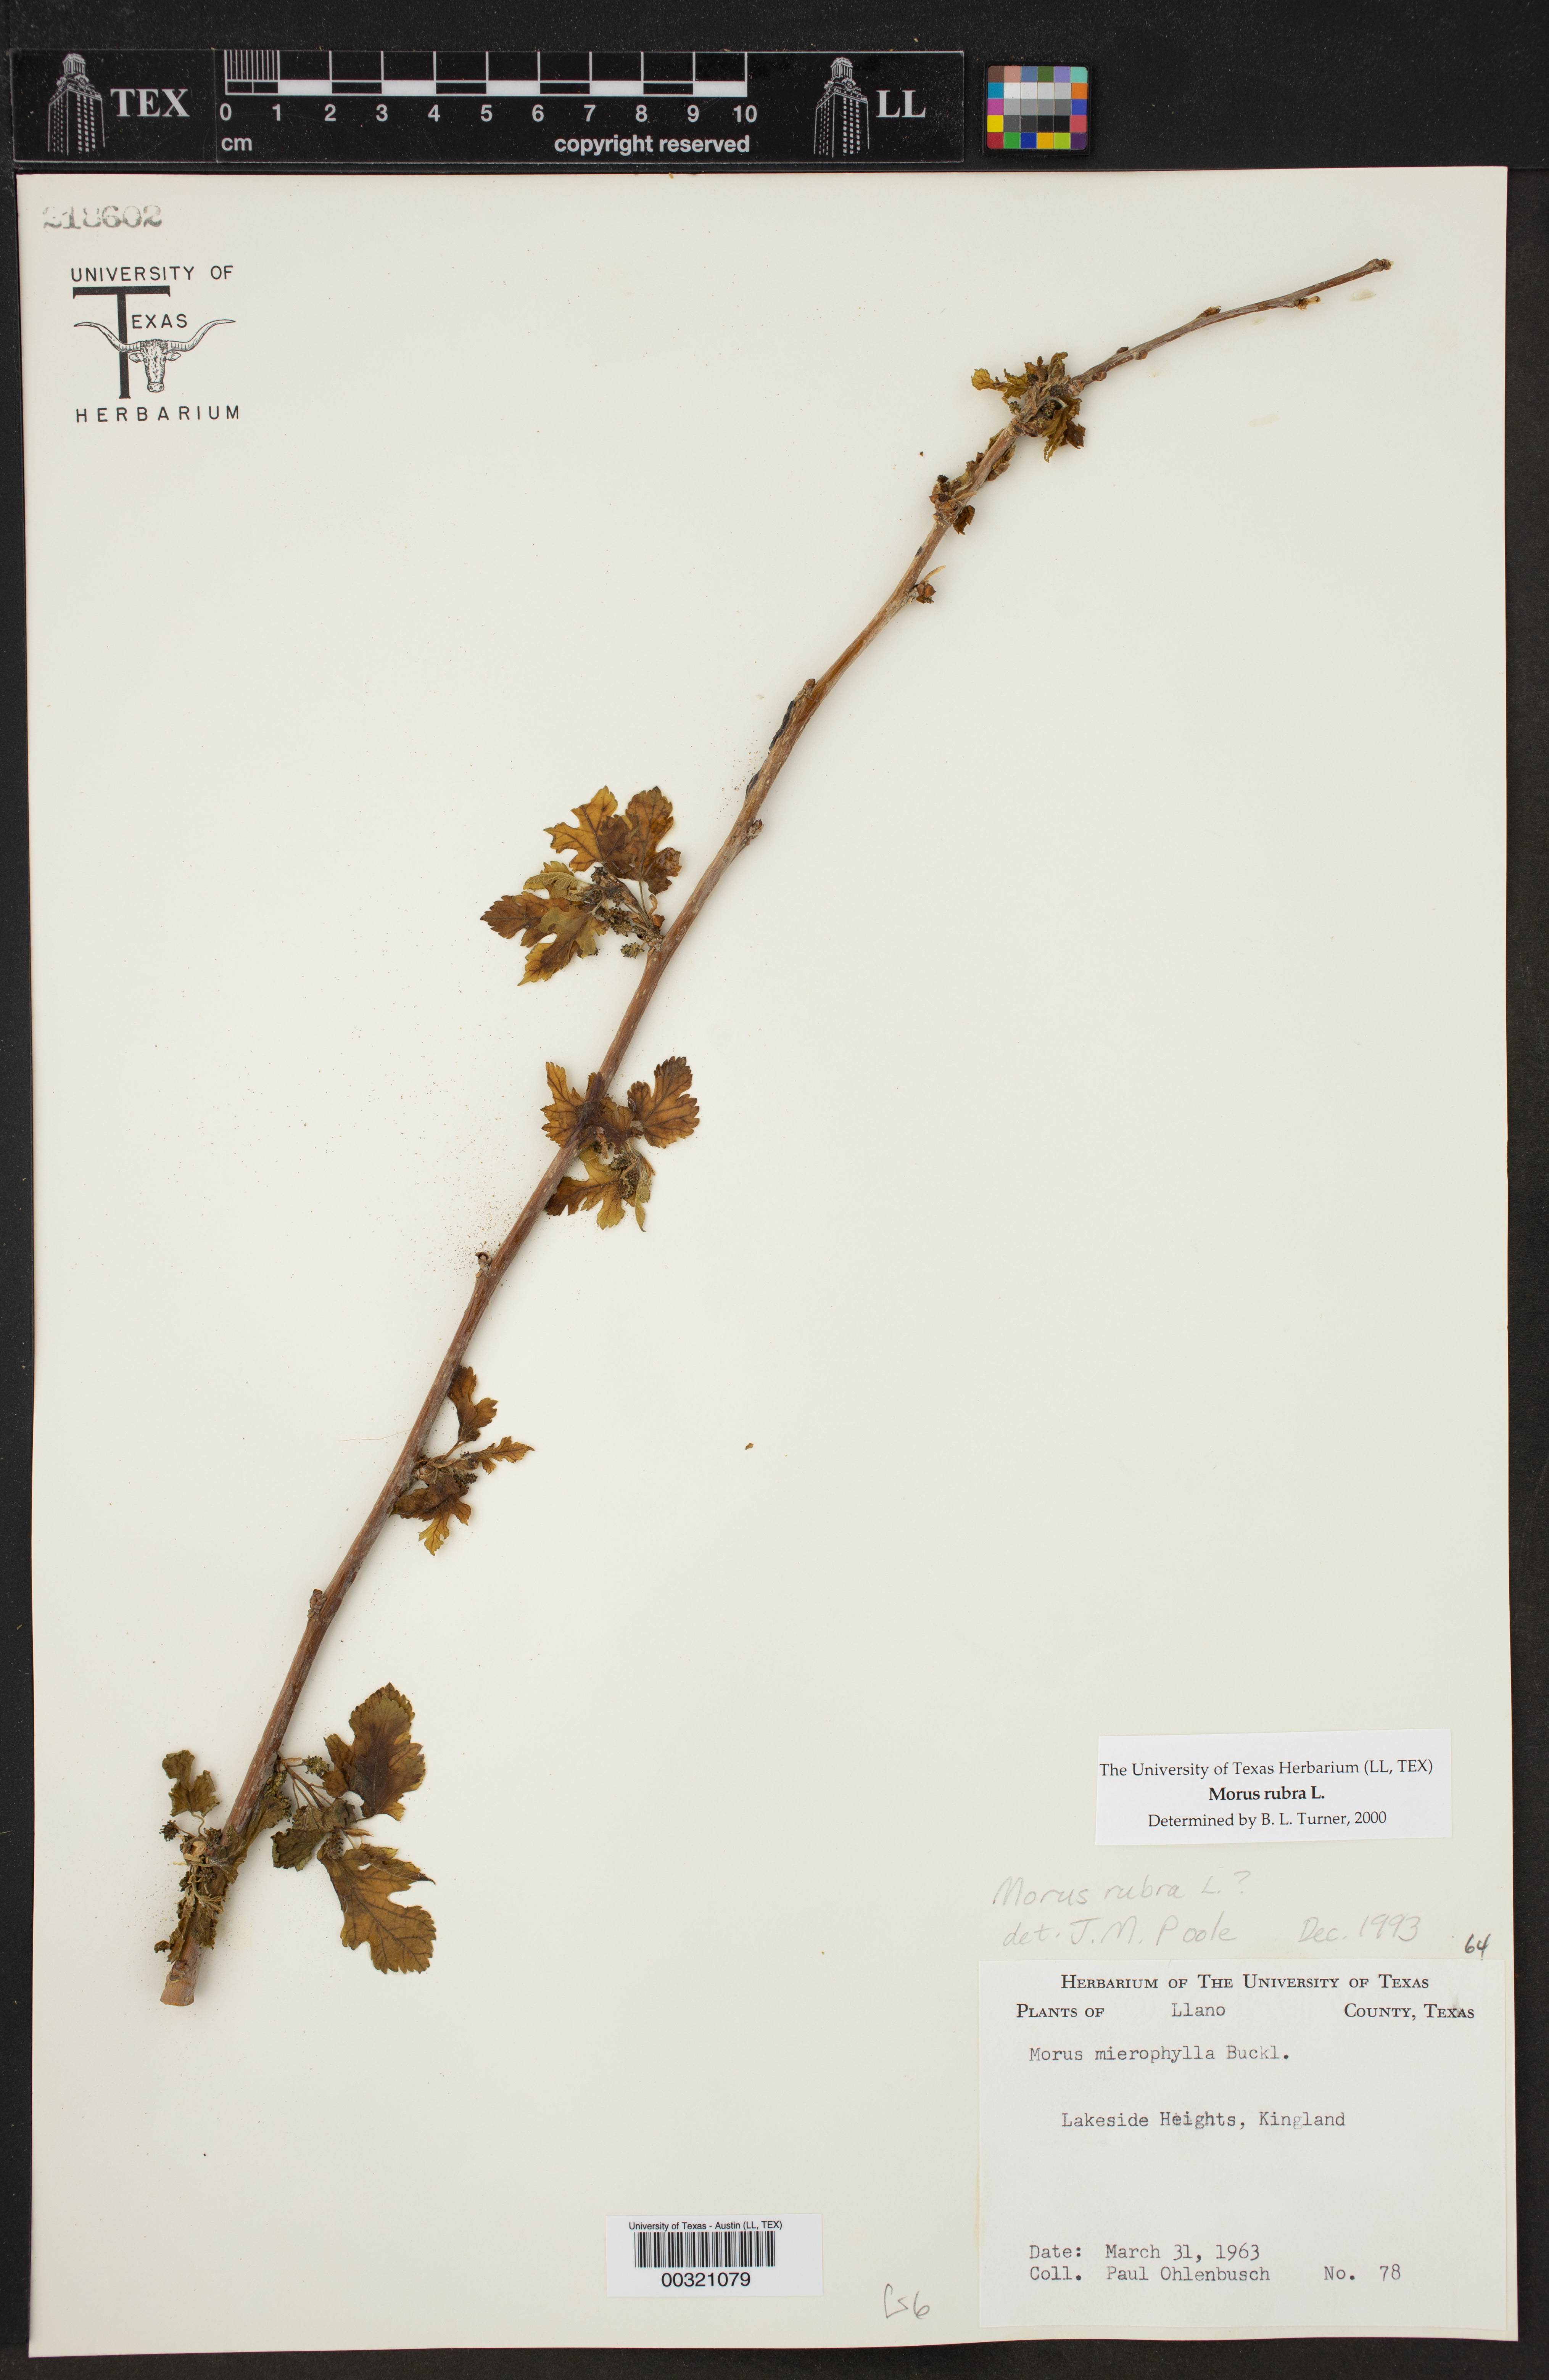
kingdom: Plantae
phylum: Tracheophyta
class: Magnoliopsida
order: Rosales
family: Moraceae
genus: Morus
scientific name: Morus rubra
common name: Red mulberry
